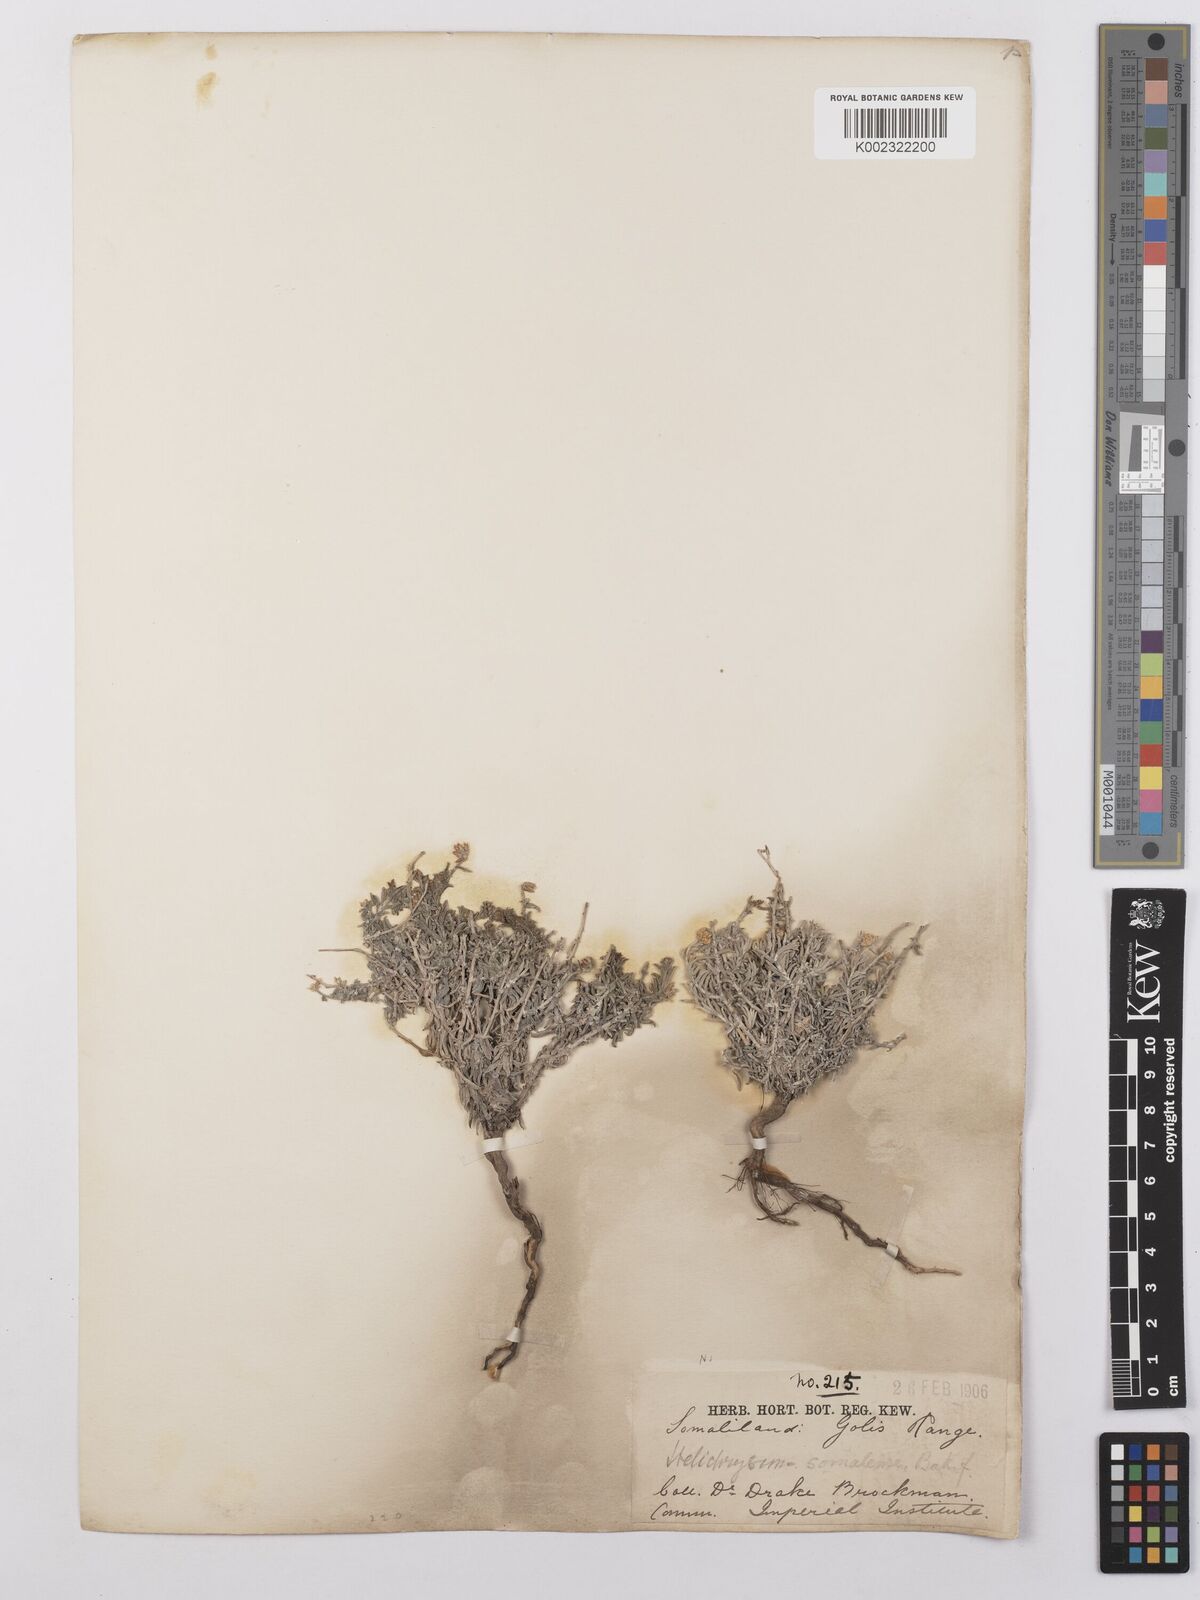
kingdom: Plantae
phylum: Tracheophyta
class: Magnoliopsida
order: Asterales
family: Asteraceae
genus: Helichrysum
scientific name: Helichrysum somalense
